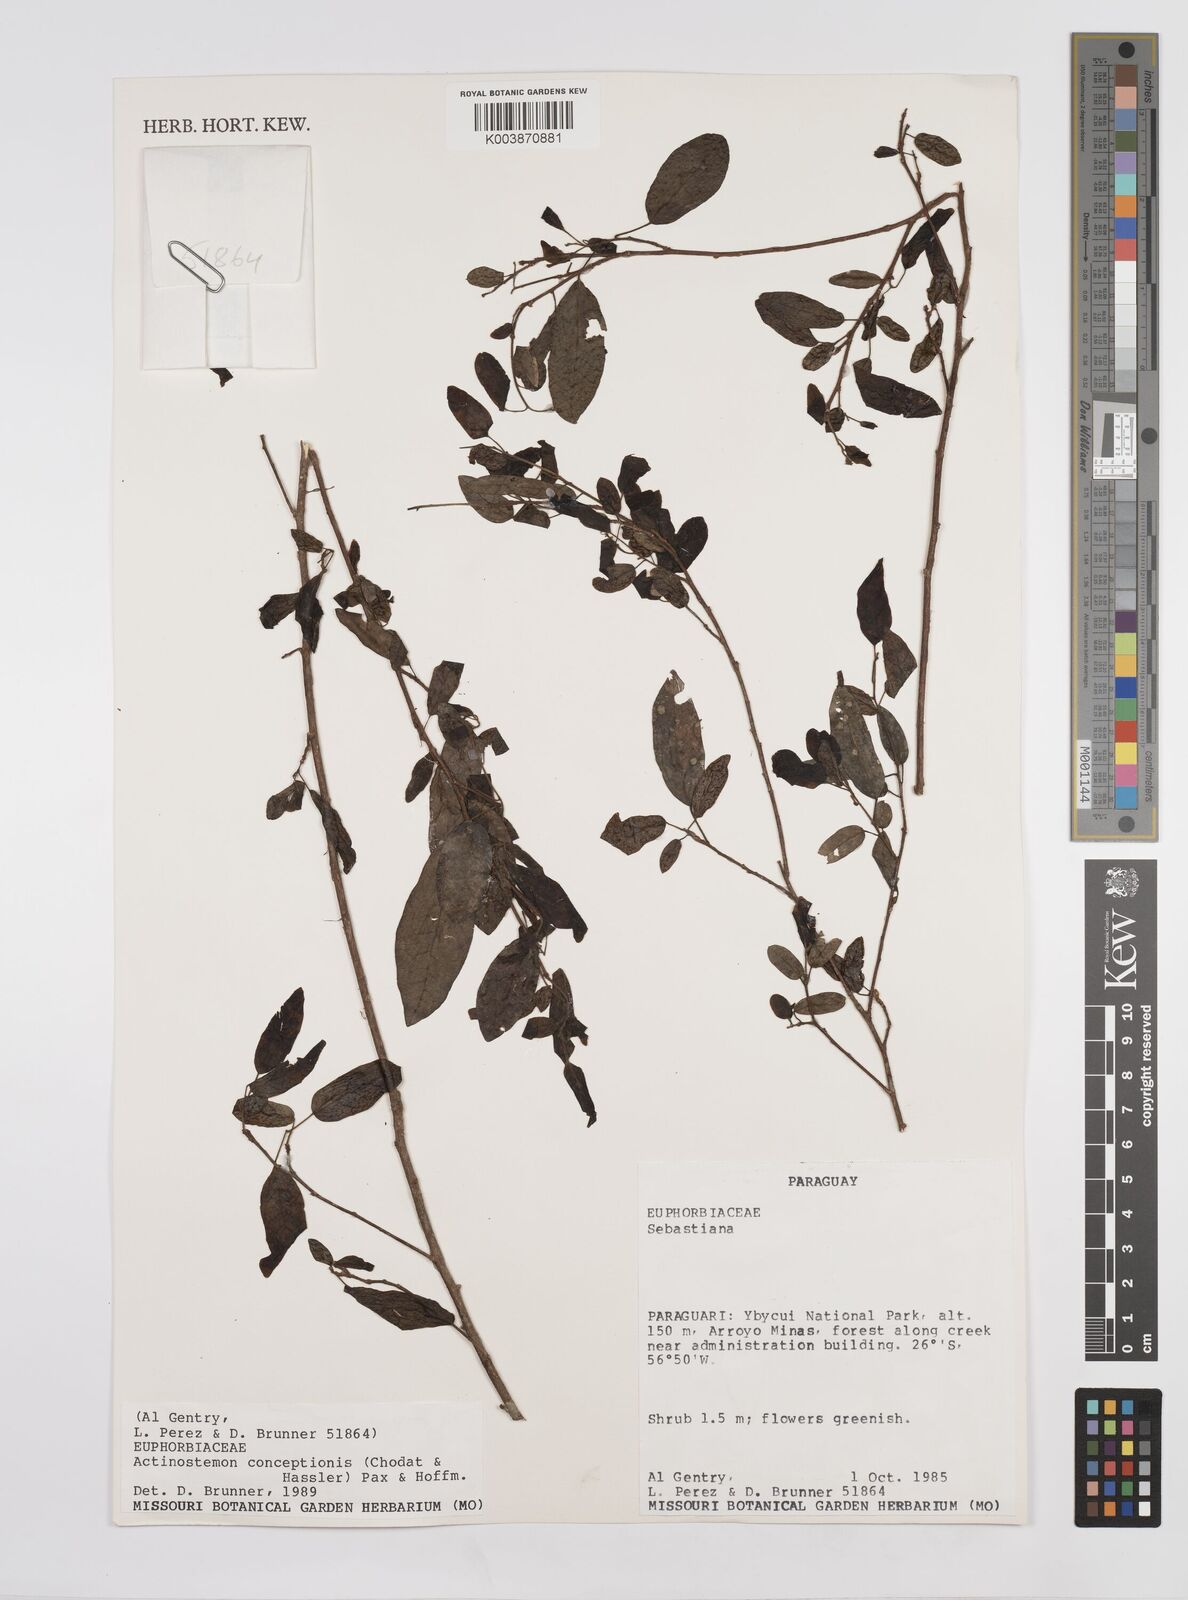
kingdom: Plantae
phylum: Tracheophyta
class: Magnoliopsida
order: Malpighiales
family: Euphorbiaceae
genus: Actinostemon
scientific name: Actinostemon concepcionis
